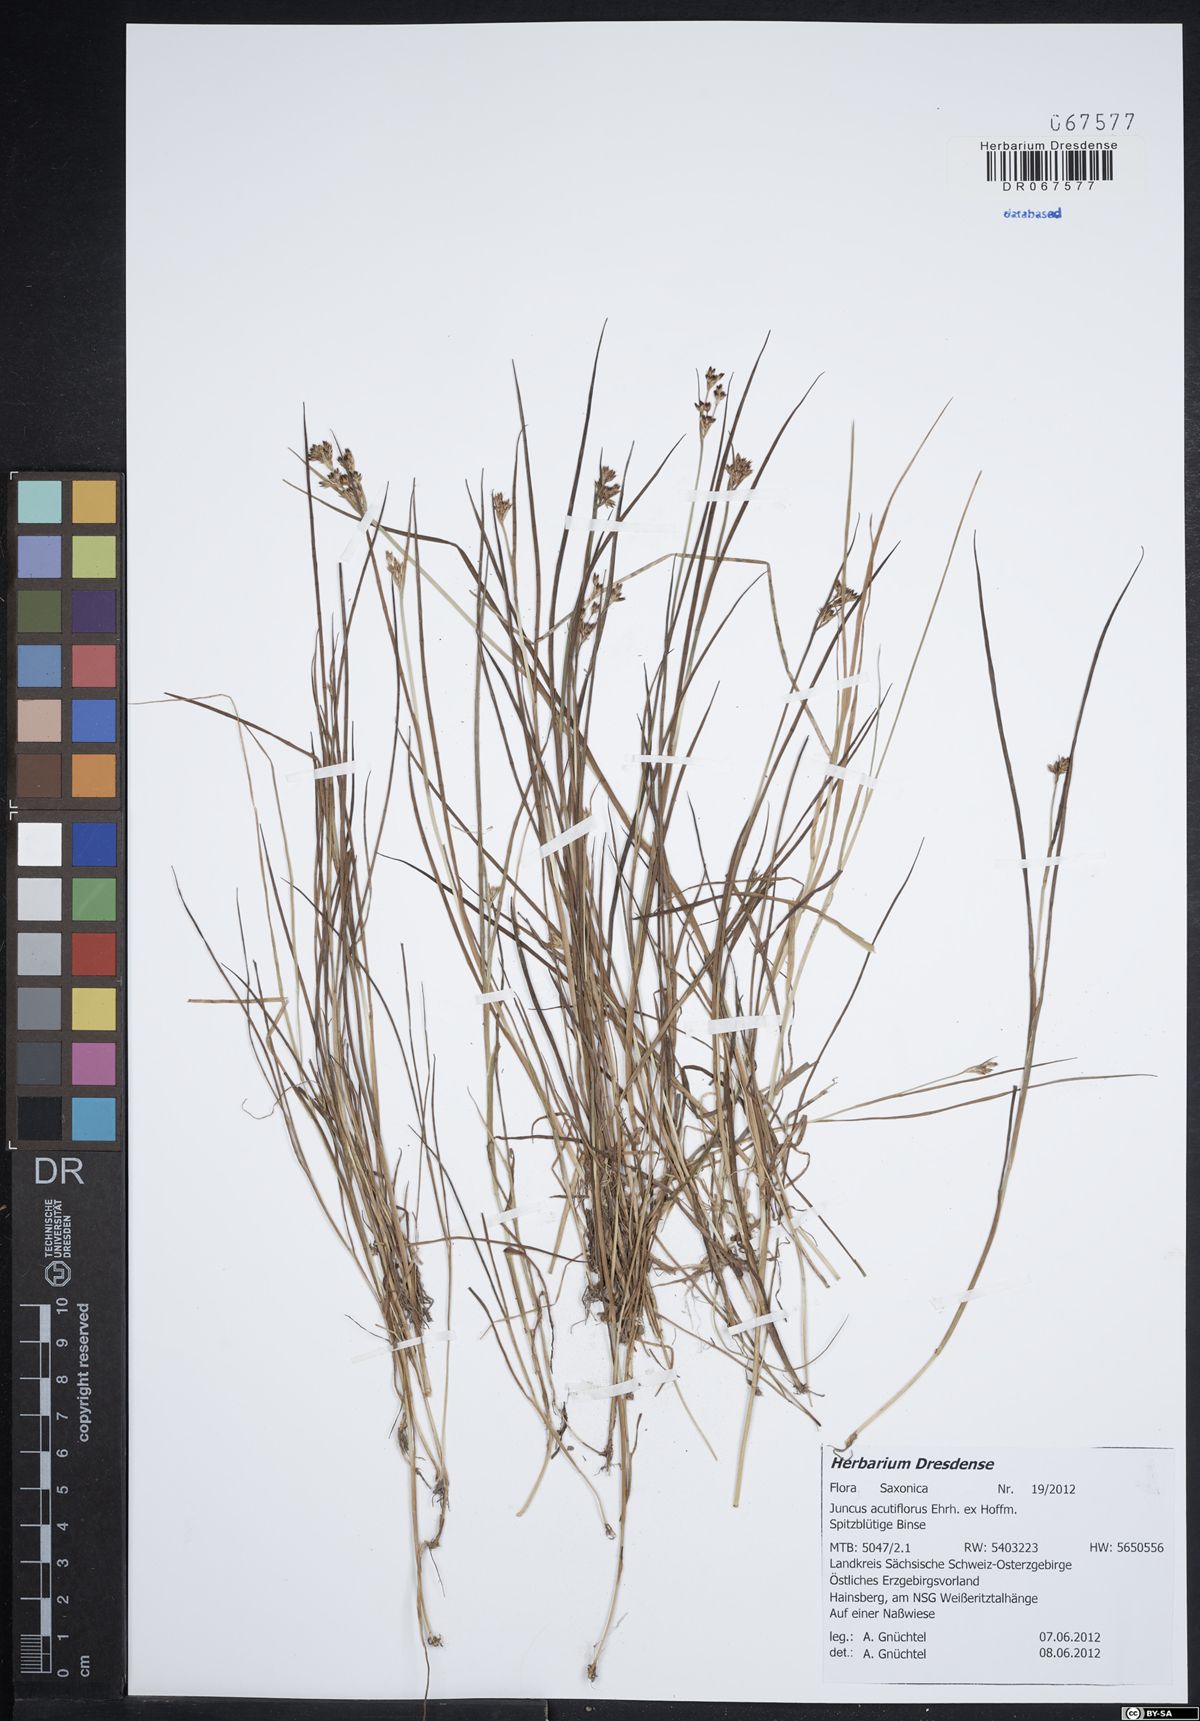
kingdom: Plantae
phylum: Tracheophyta
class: Liliopsida
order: Poales
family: Juncaceae
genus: Juncus
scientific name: Juncus acutiflorus
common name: Sharp-flowered rush
